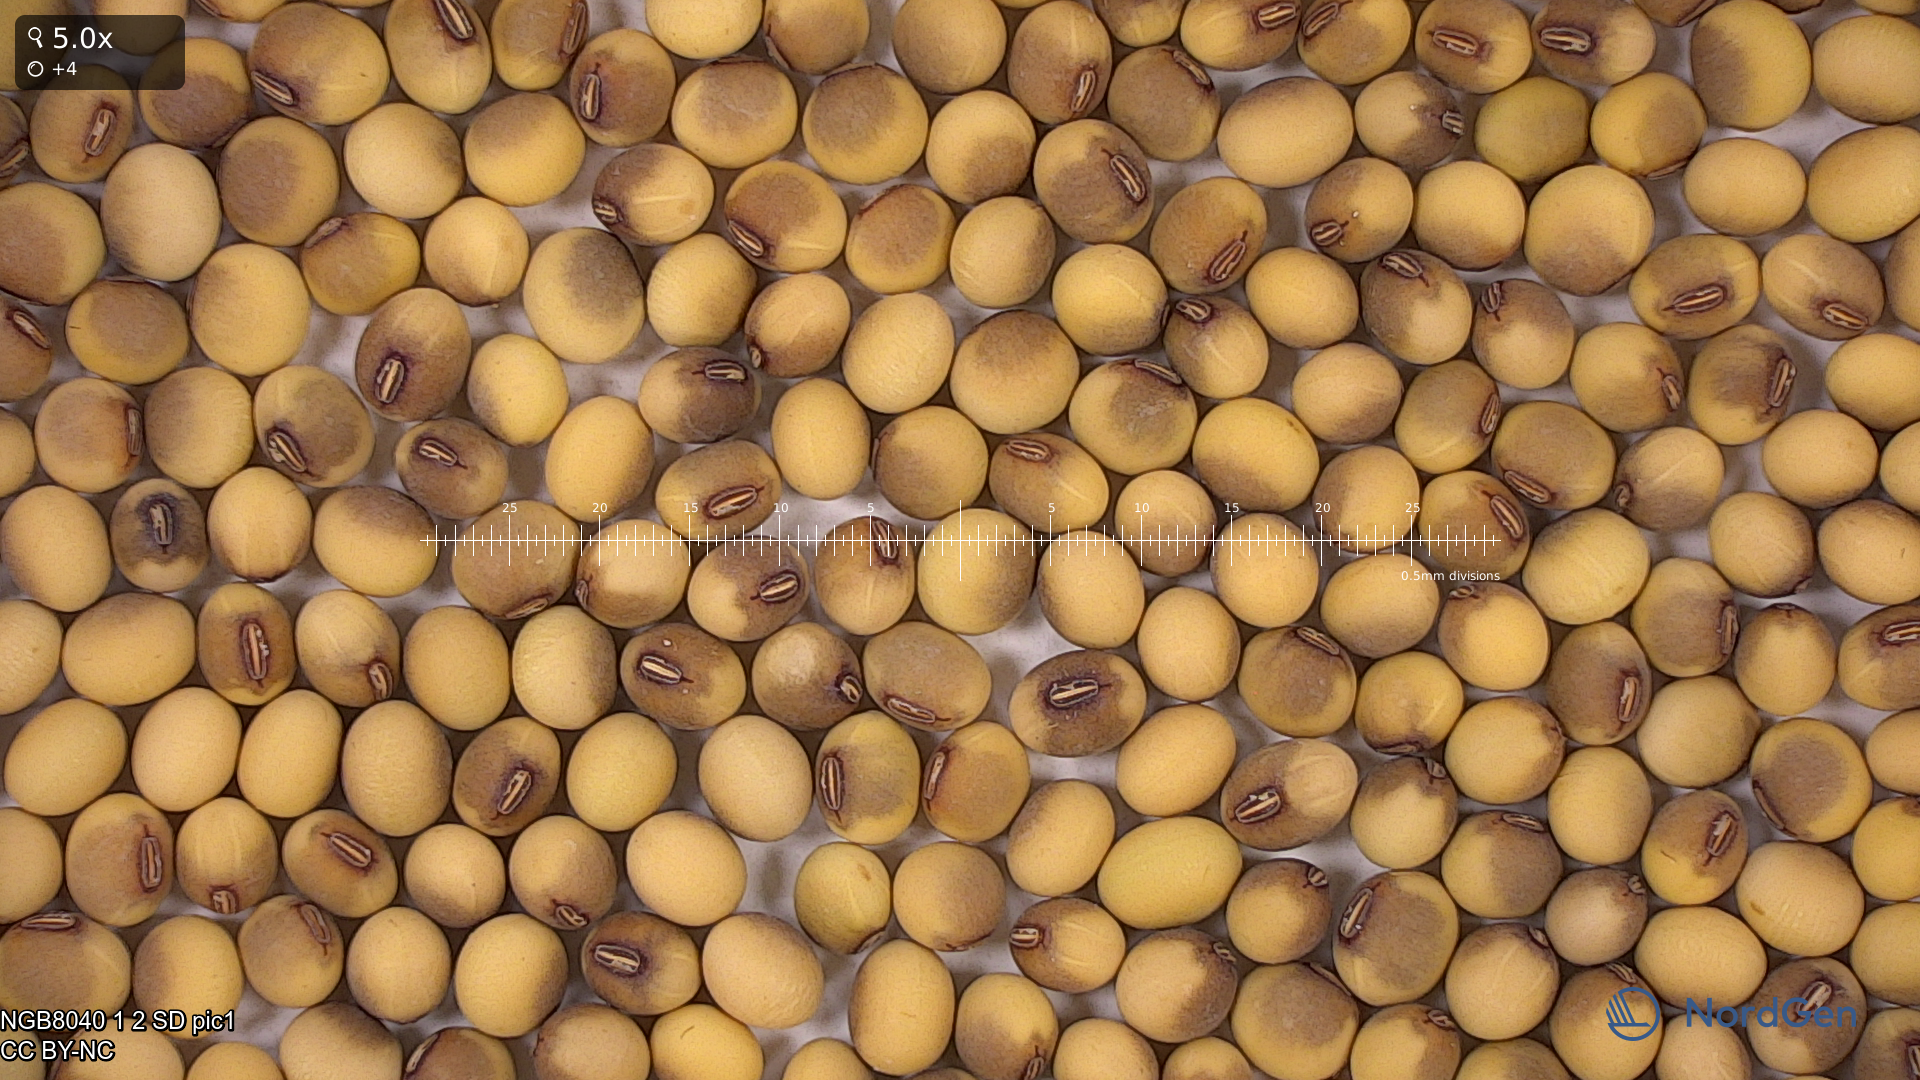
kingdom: Plantae
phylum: Tracheophyta
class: Magnoliopsida
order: Fabales
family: Fabaceae
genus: Glycine
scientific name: Glycine max
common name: Soya-bean
